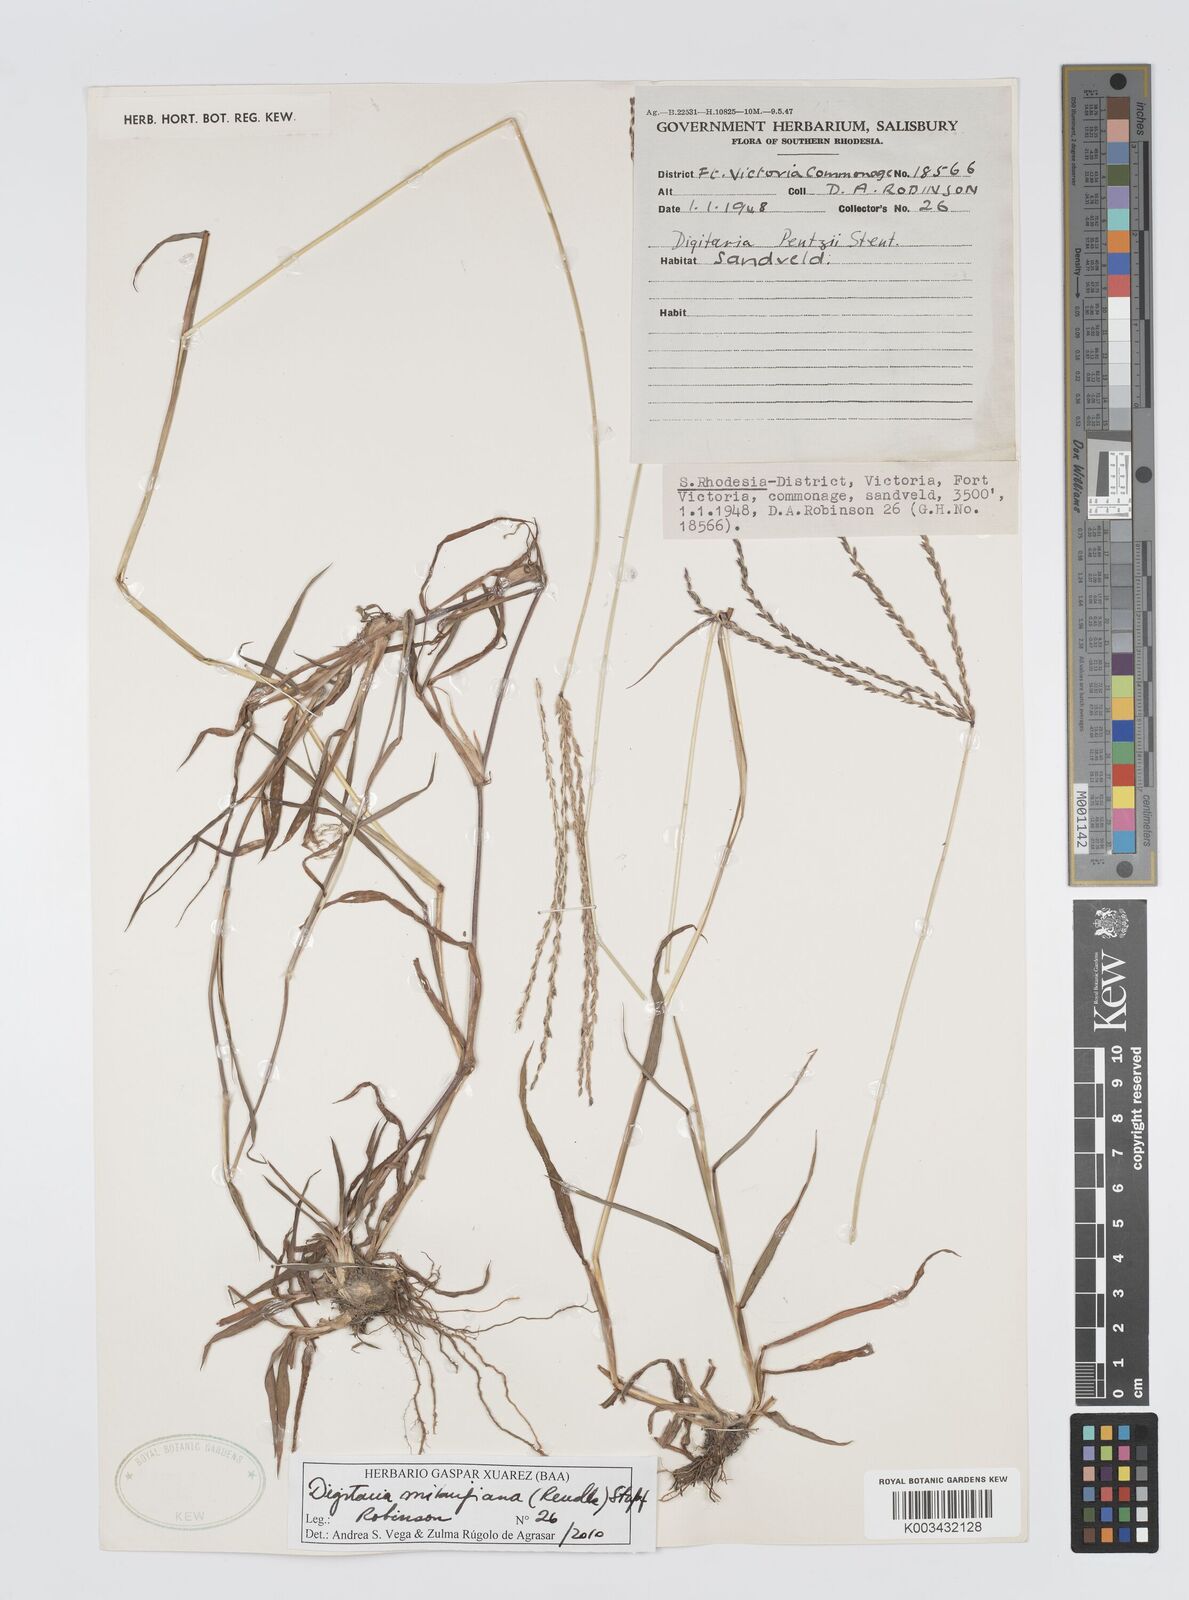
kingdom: Plantae
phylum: Tracheophyta
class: Liliopsida
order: Poales
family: Poaceae
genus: Digitaria
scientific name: Digitaria milanjiana
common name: Madagascar crabgrass
